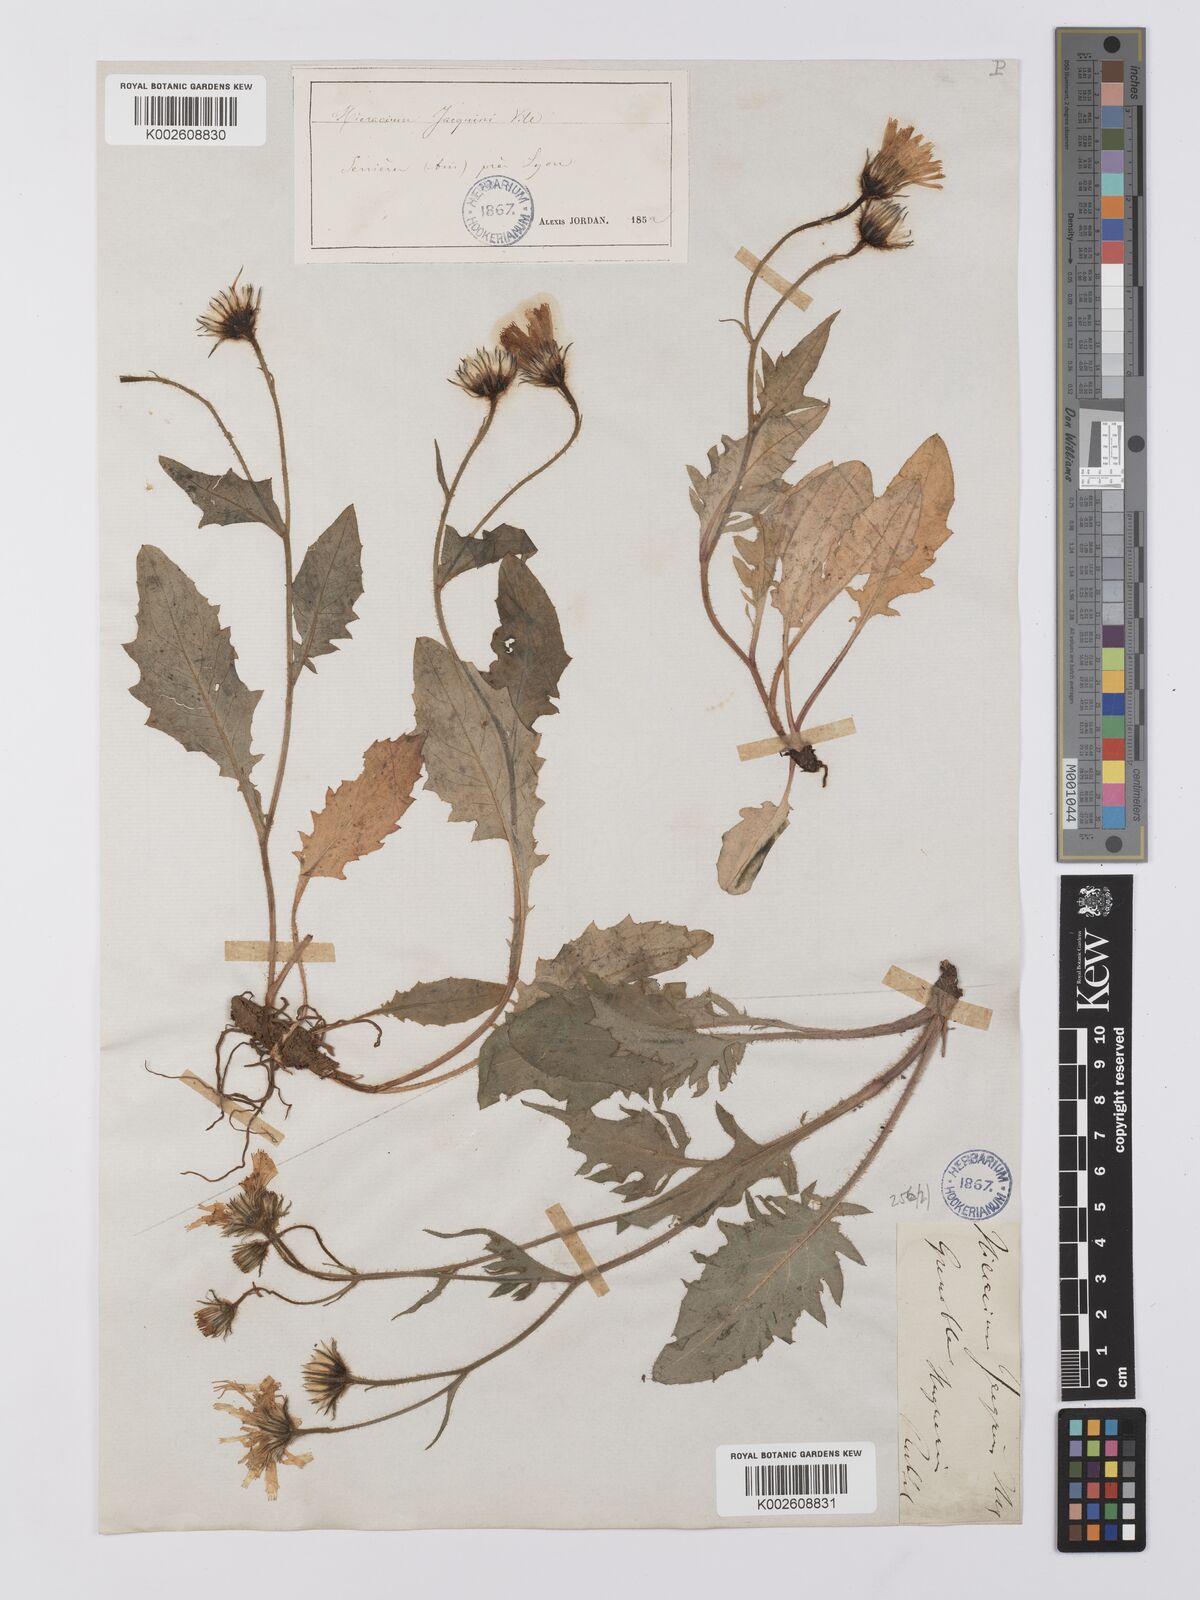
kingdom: Plantae
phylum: Tracheophyta
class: Magnoliopsida
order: Asterales
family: Asteraceae
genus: Hieracium
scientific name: Hieracium cottetii
